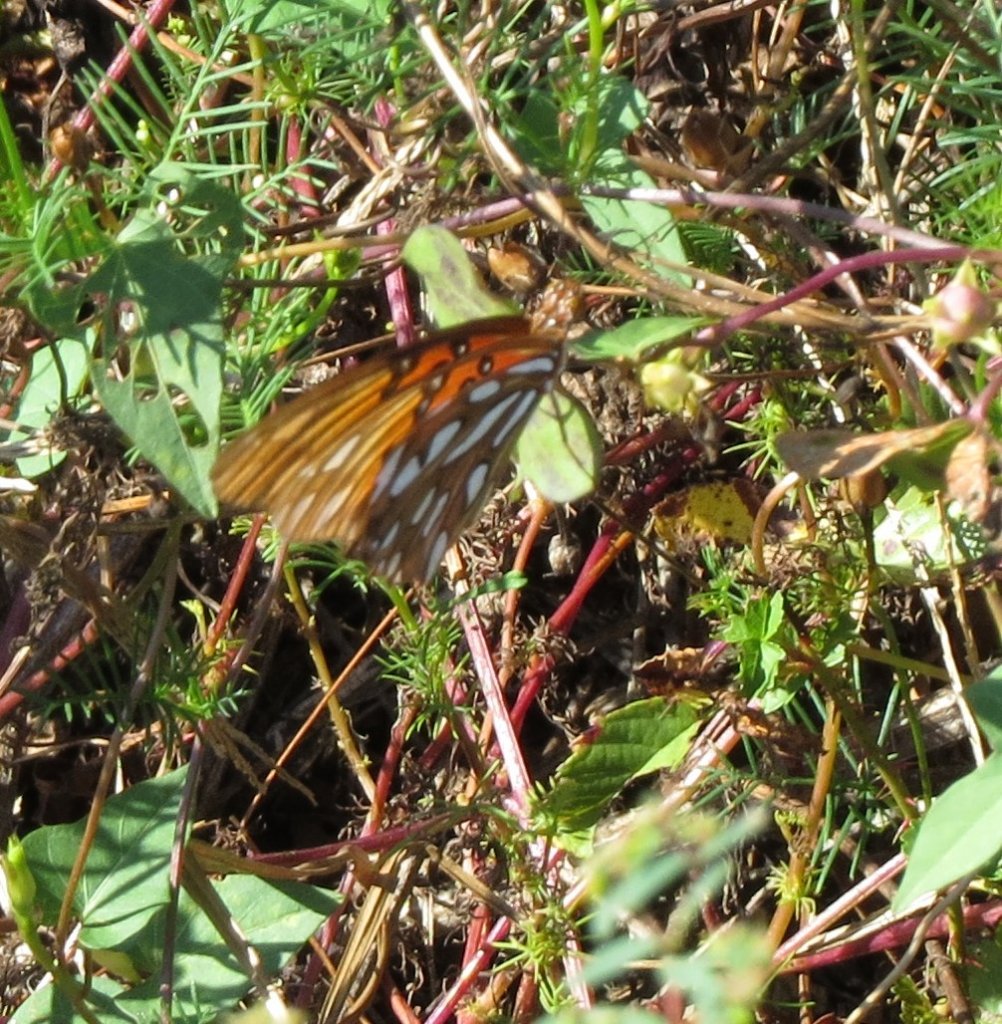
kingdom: Animalia
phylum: Arthropoda
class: Insecta
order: Lepidoptera
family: Nymphalidae
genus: Dione
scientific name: Dione vanillae
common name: Gulf Fritillary
